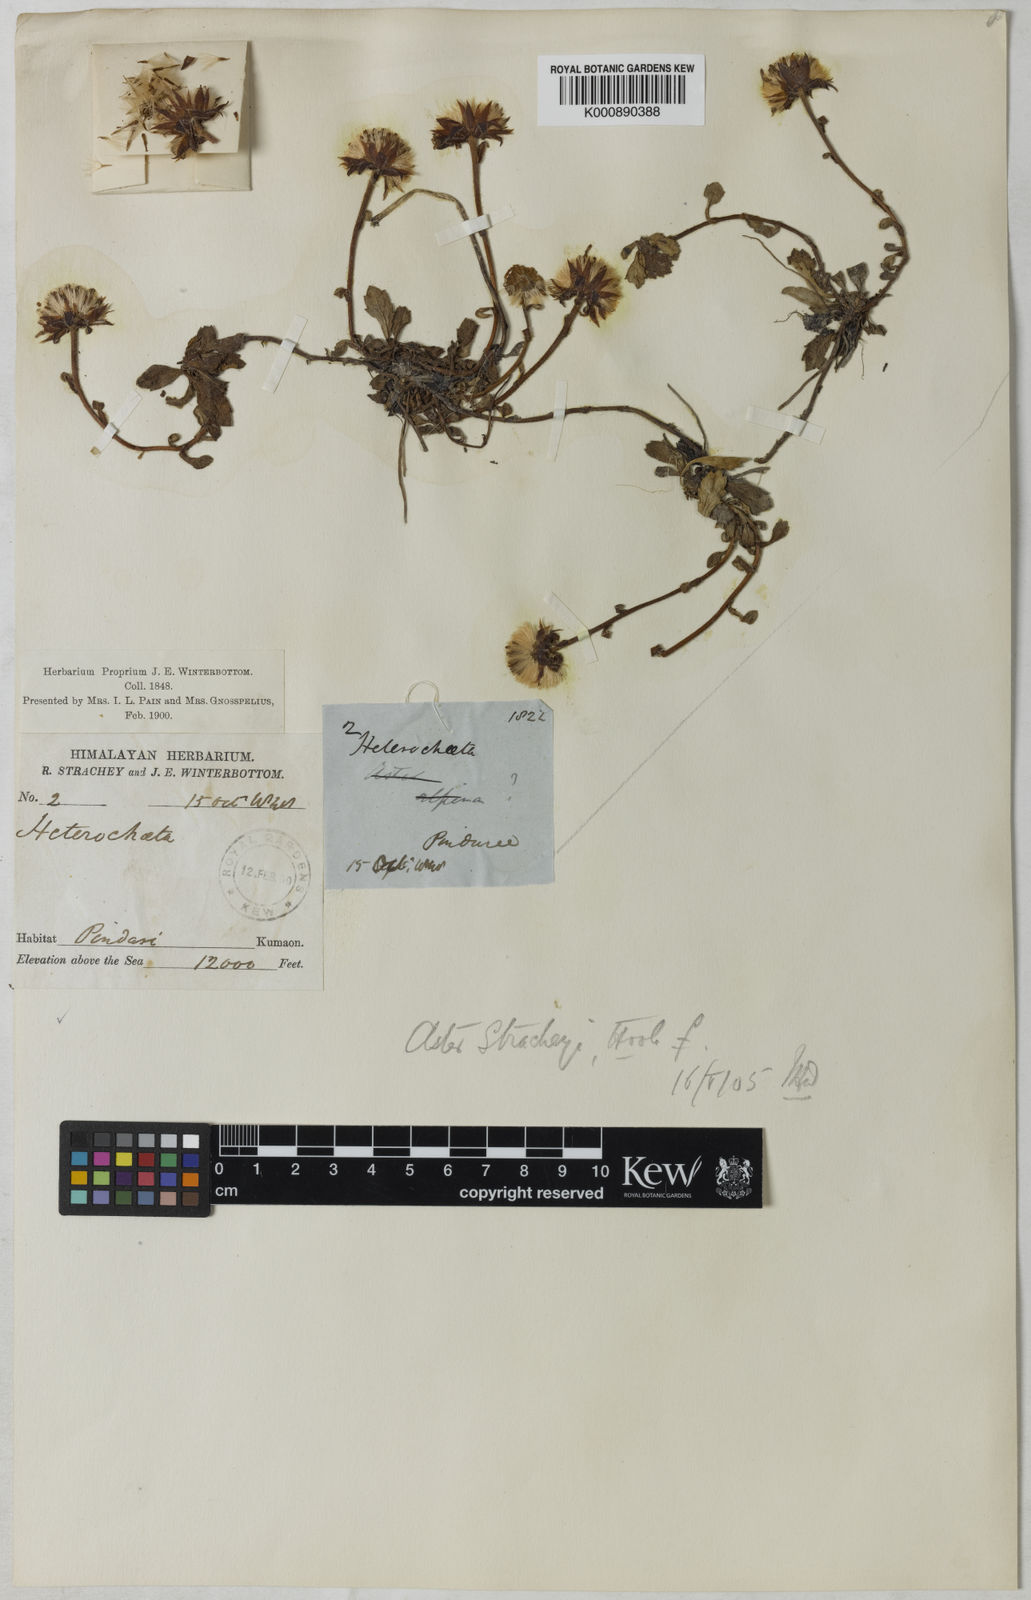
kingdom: Plantae
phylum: Tracheophyta
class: Magnoliopsida
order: Asterales
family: Asteraceae
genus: Tibetiodes
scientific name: Tibetiodes stracheyi
